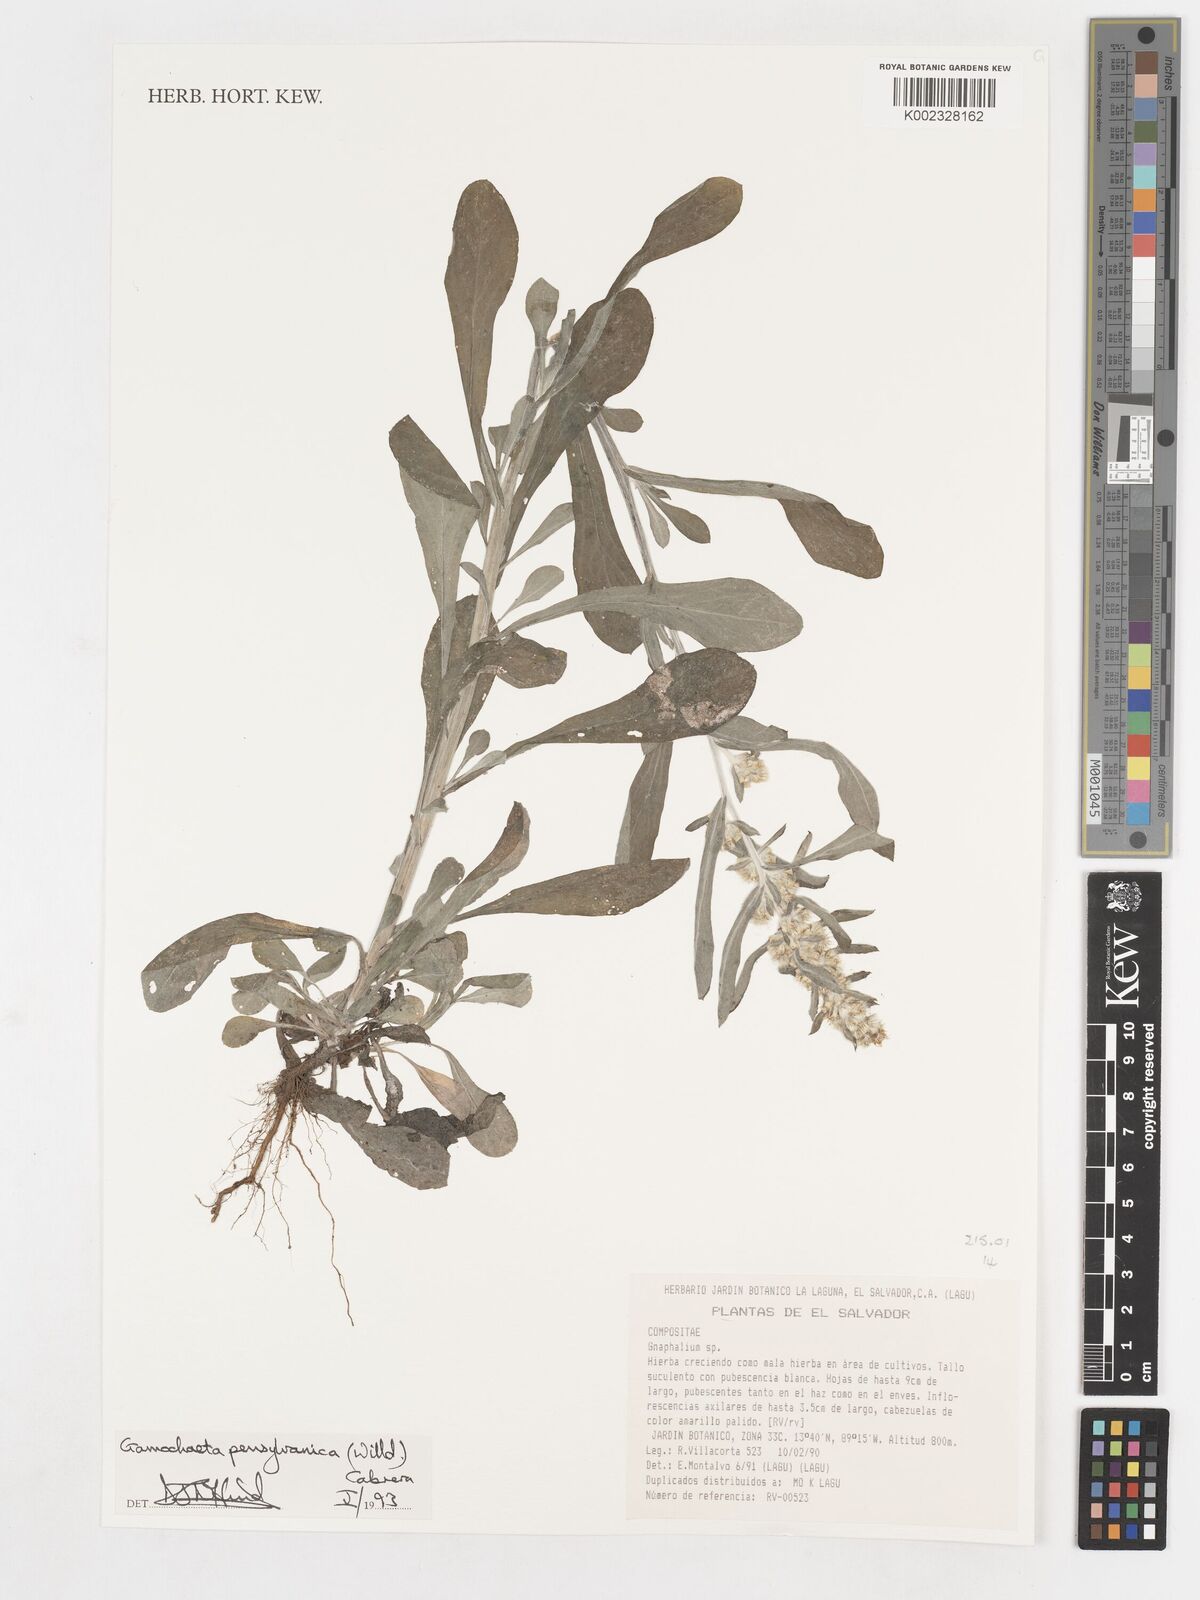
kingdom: Plantae
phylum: Tracheophyta
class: Magnoliopsida
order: Asterales
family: Asteraceae
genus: Gamochaeta
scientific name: Gamochaeta pensylvanica
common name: Pennsylvania everlasting
